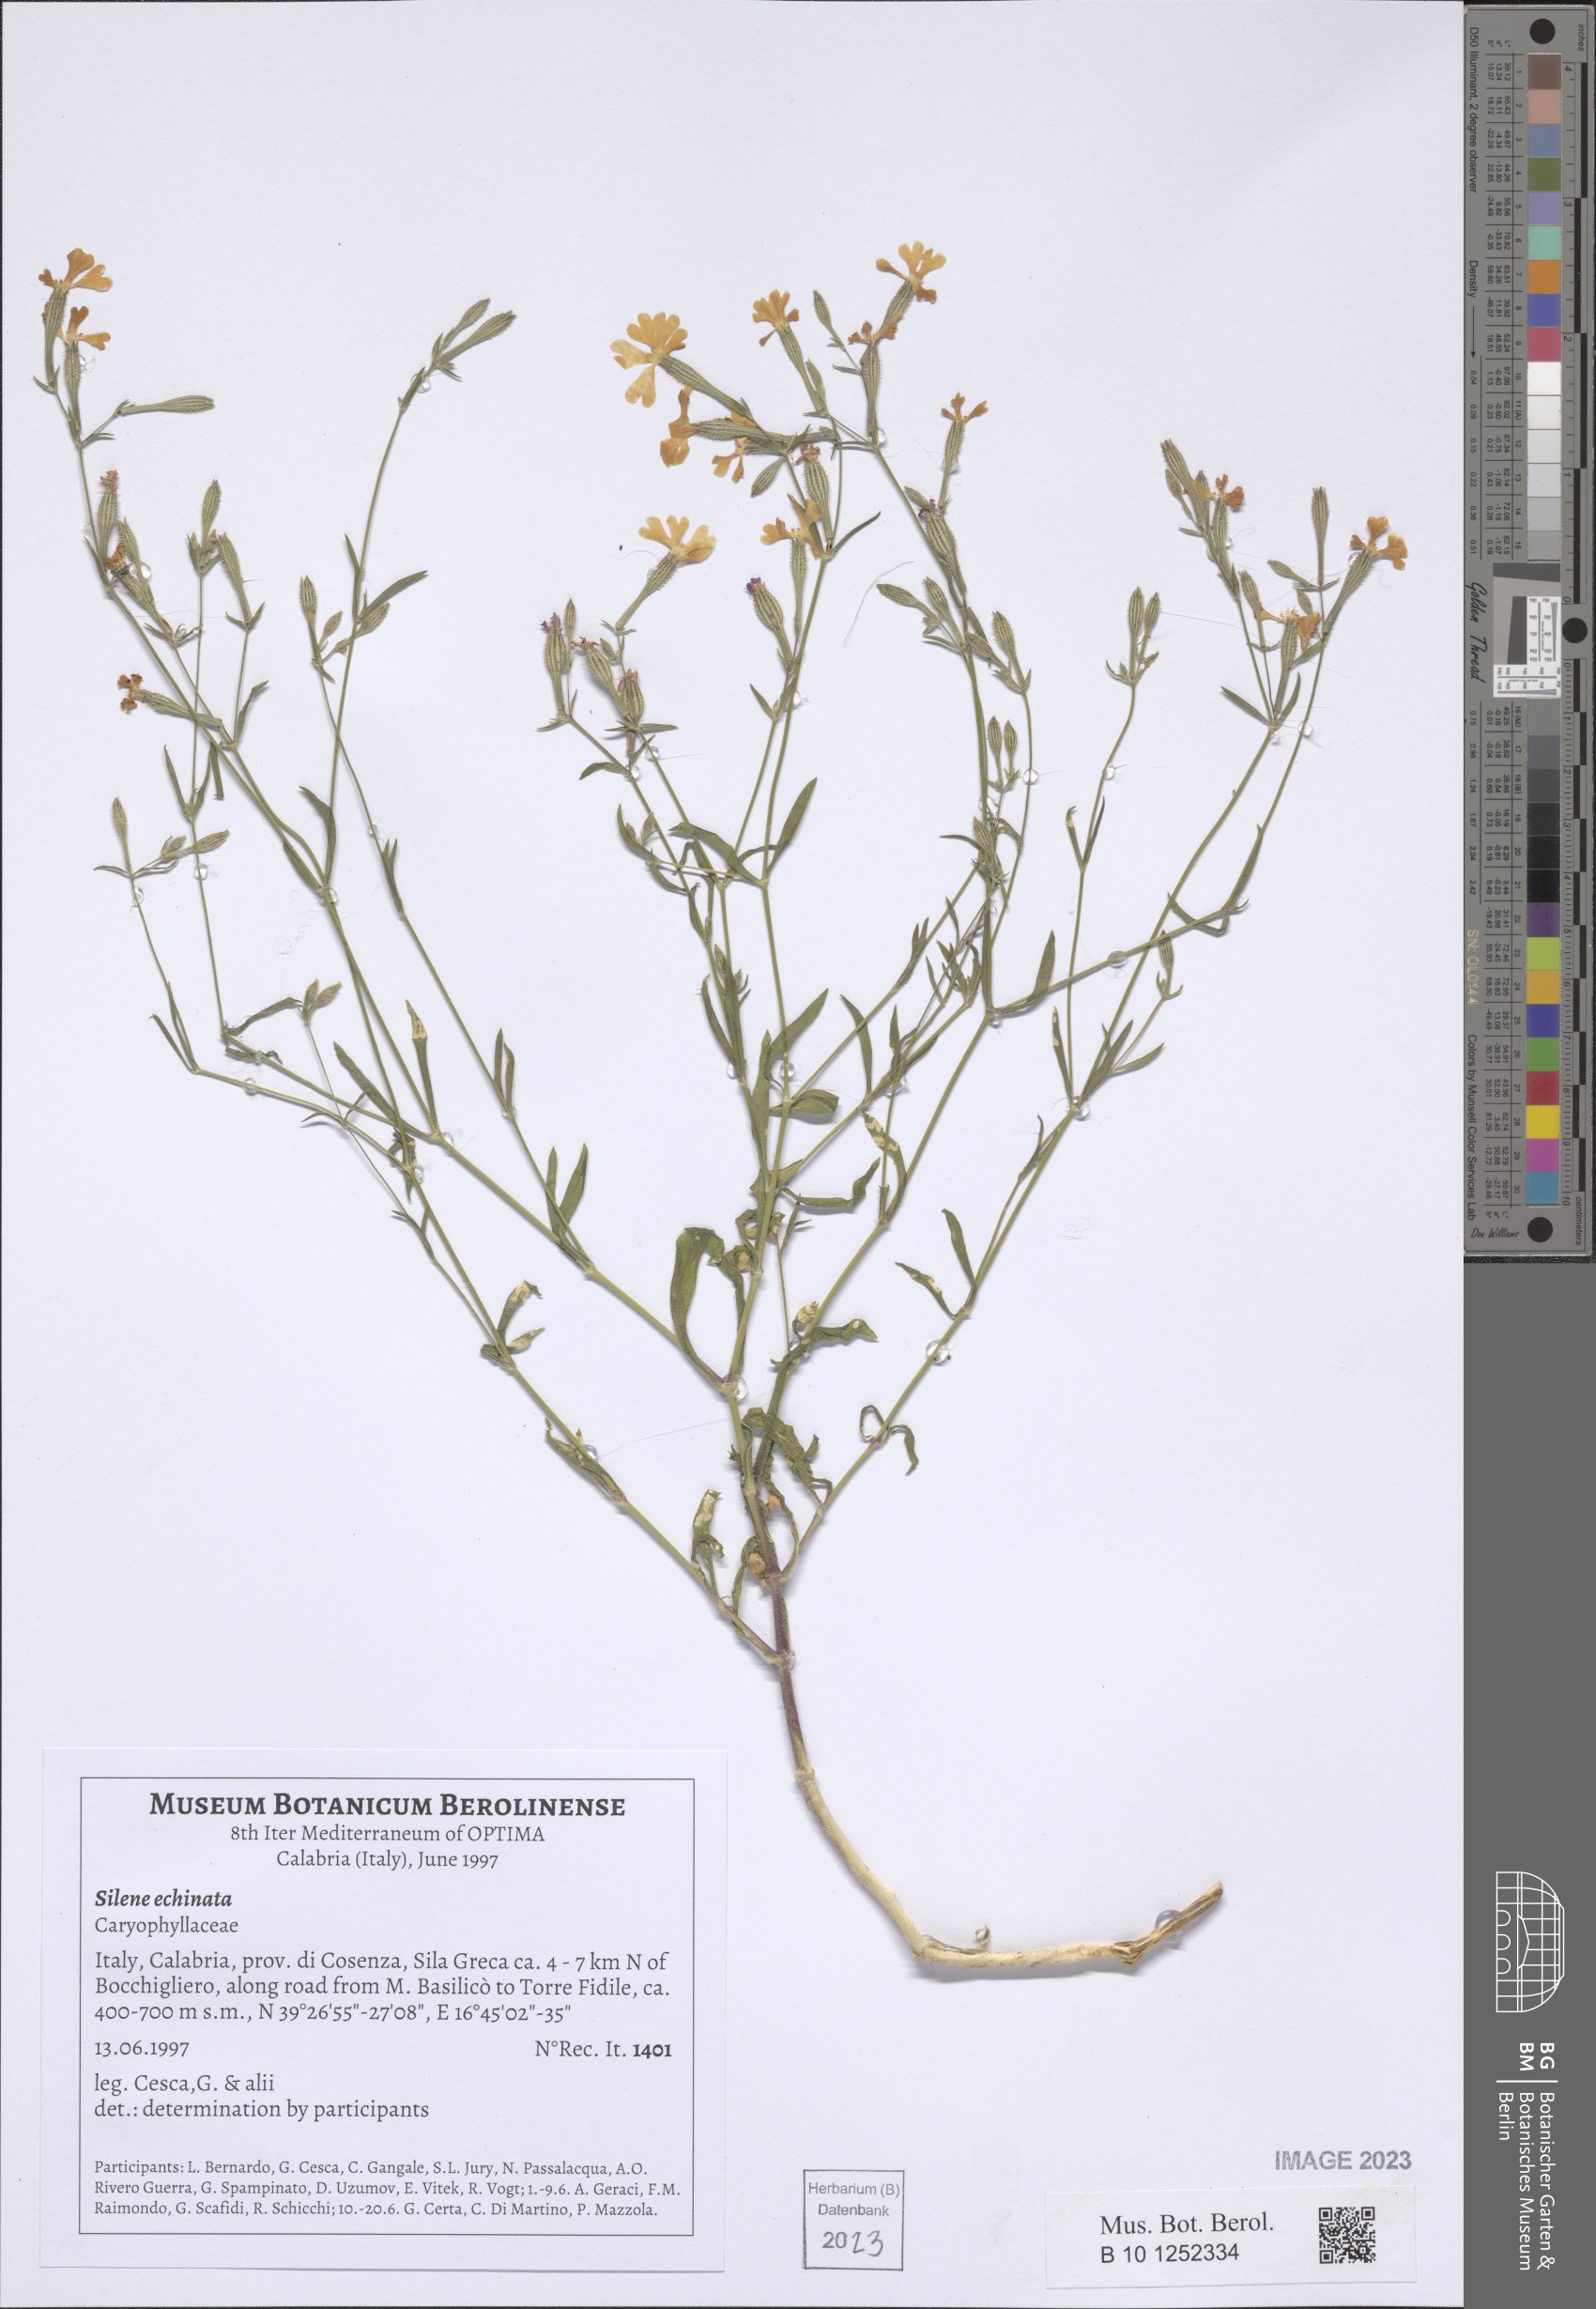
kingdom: Plantae
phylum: Tracheophyta
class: Magnoliopsida
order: Caryophyllales
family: Caryophyllaceae
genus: Silene
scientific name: Silene echinata
